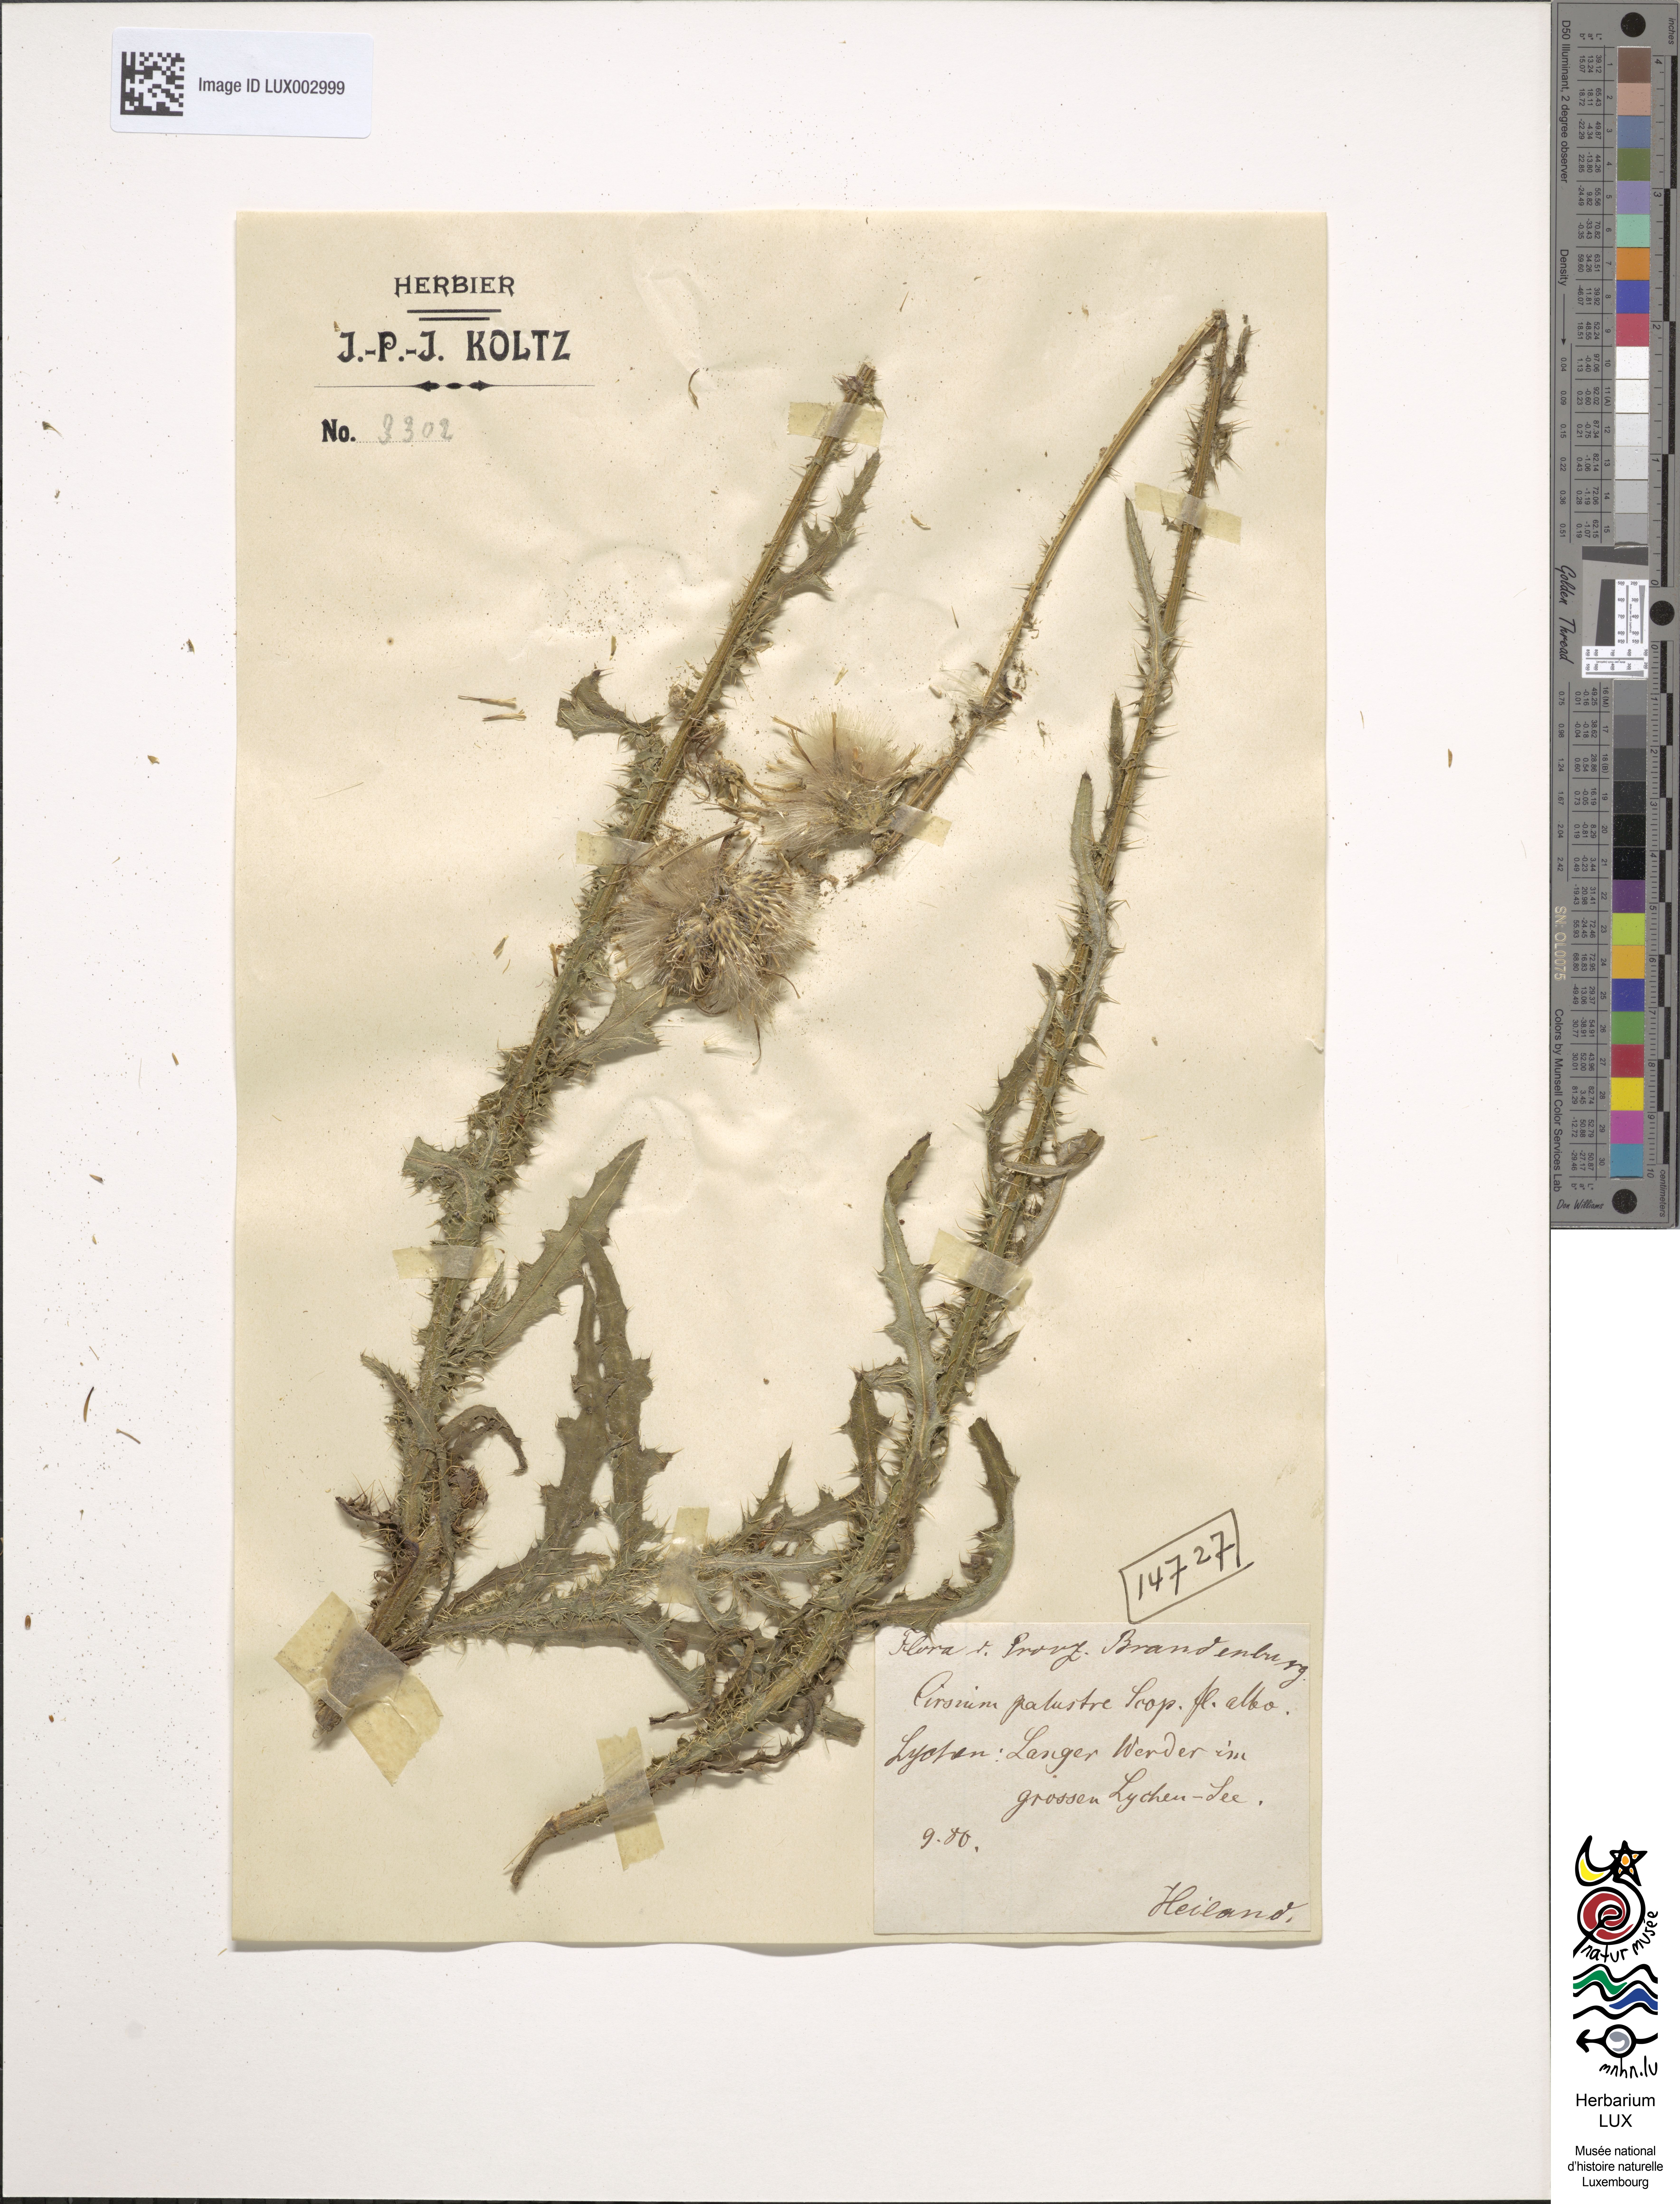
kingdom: Plantae
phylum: Tracheophyta
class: Magnoliopsida
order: Asterales
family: Asteraceae
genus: Cirsium
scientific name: Cirsium palustre
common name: Marsh thistle
